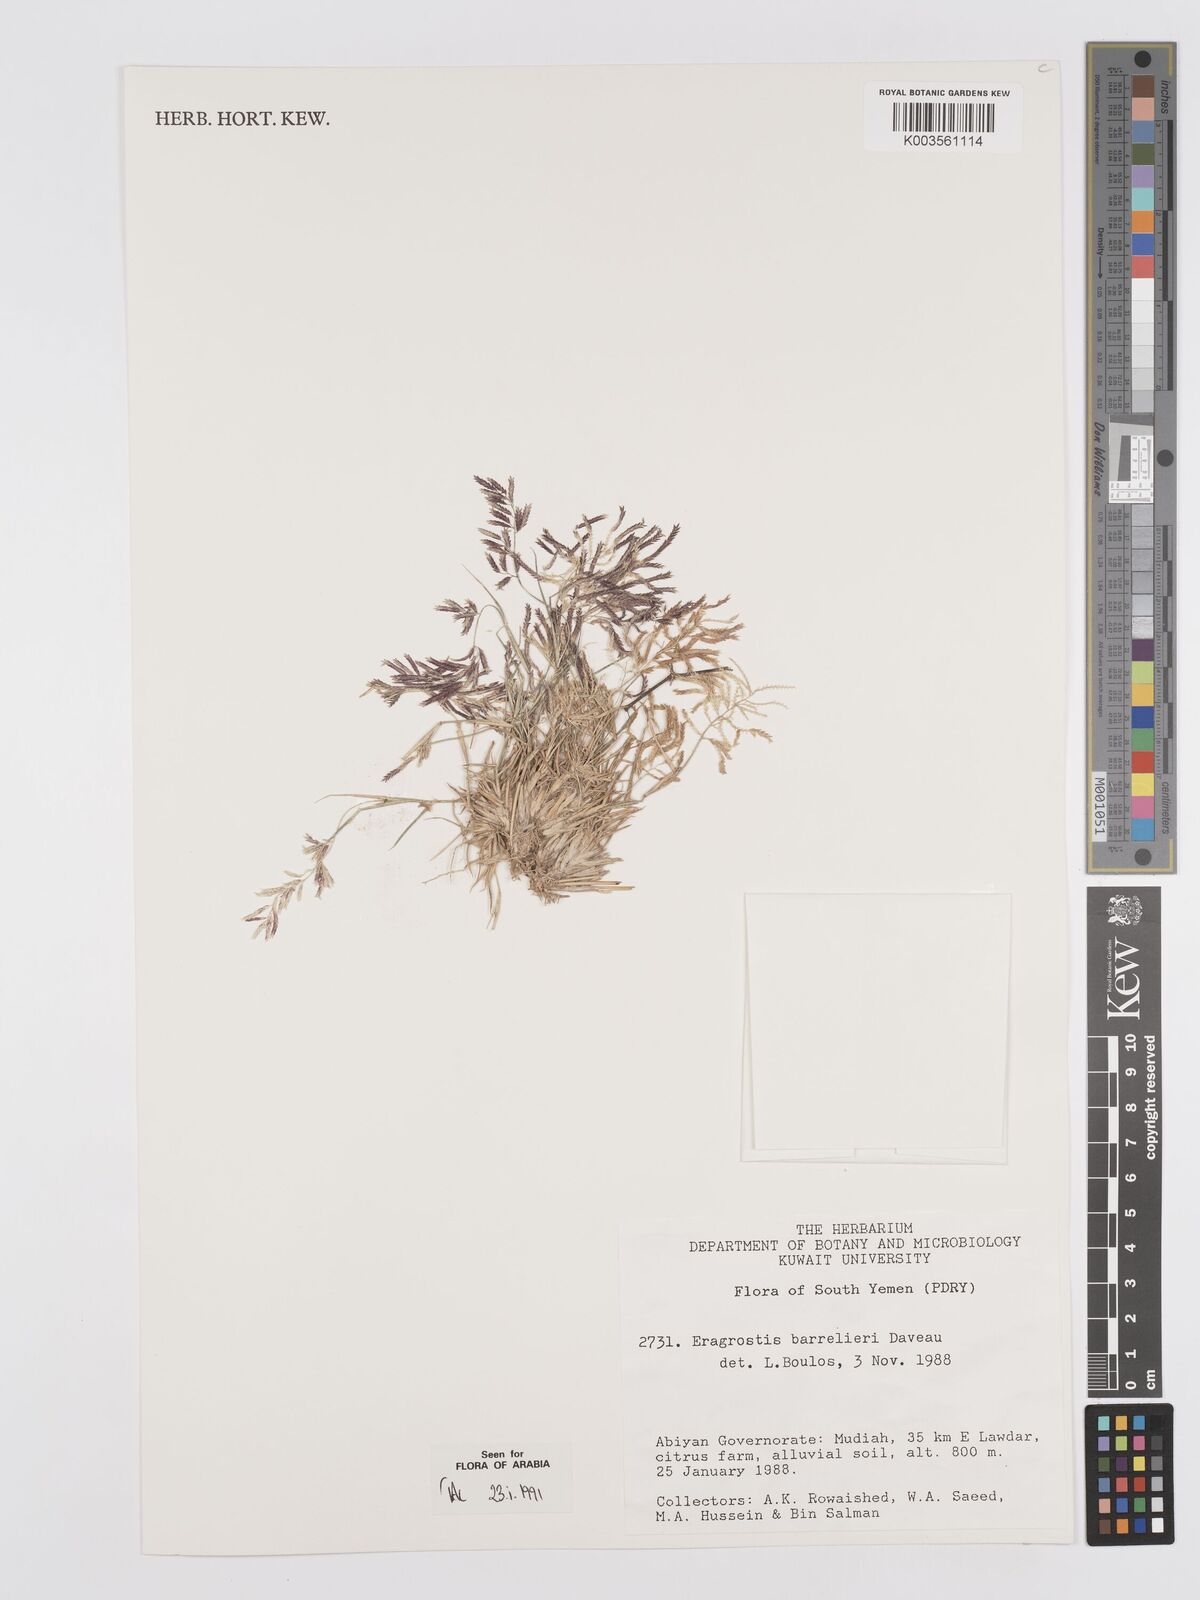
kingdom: Plantae
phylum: Tracheophyta
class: Liliopsida
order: Poales
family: Poaceae
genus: Eragrostis
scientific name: Eragrostis barrelieri
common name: Mediterranean lovegrass
